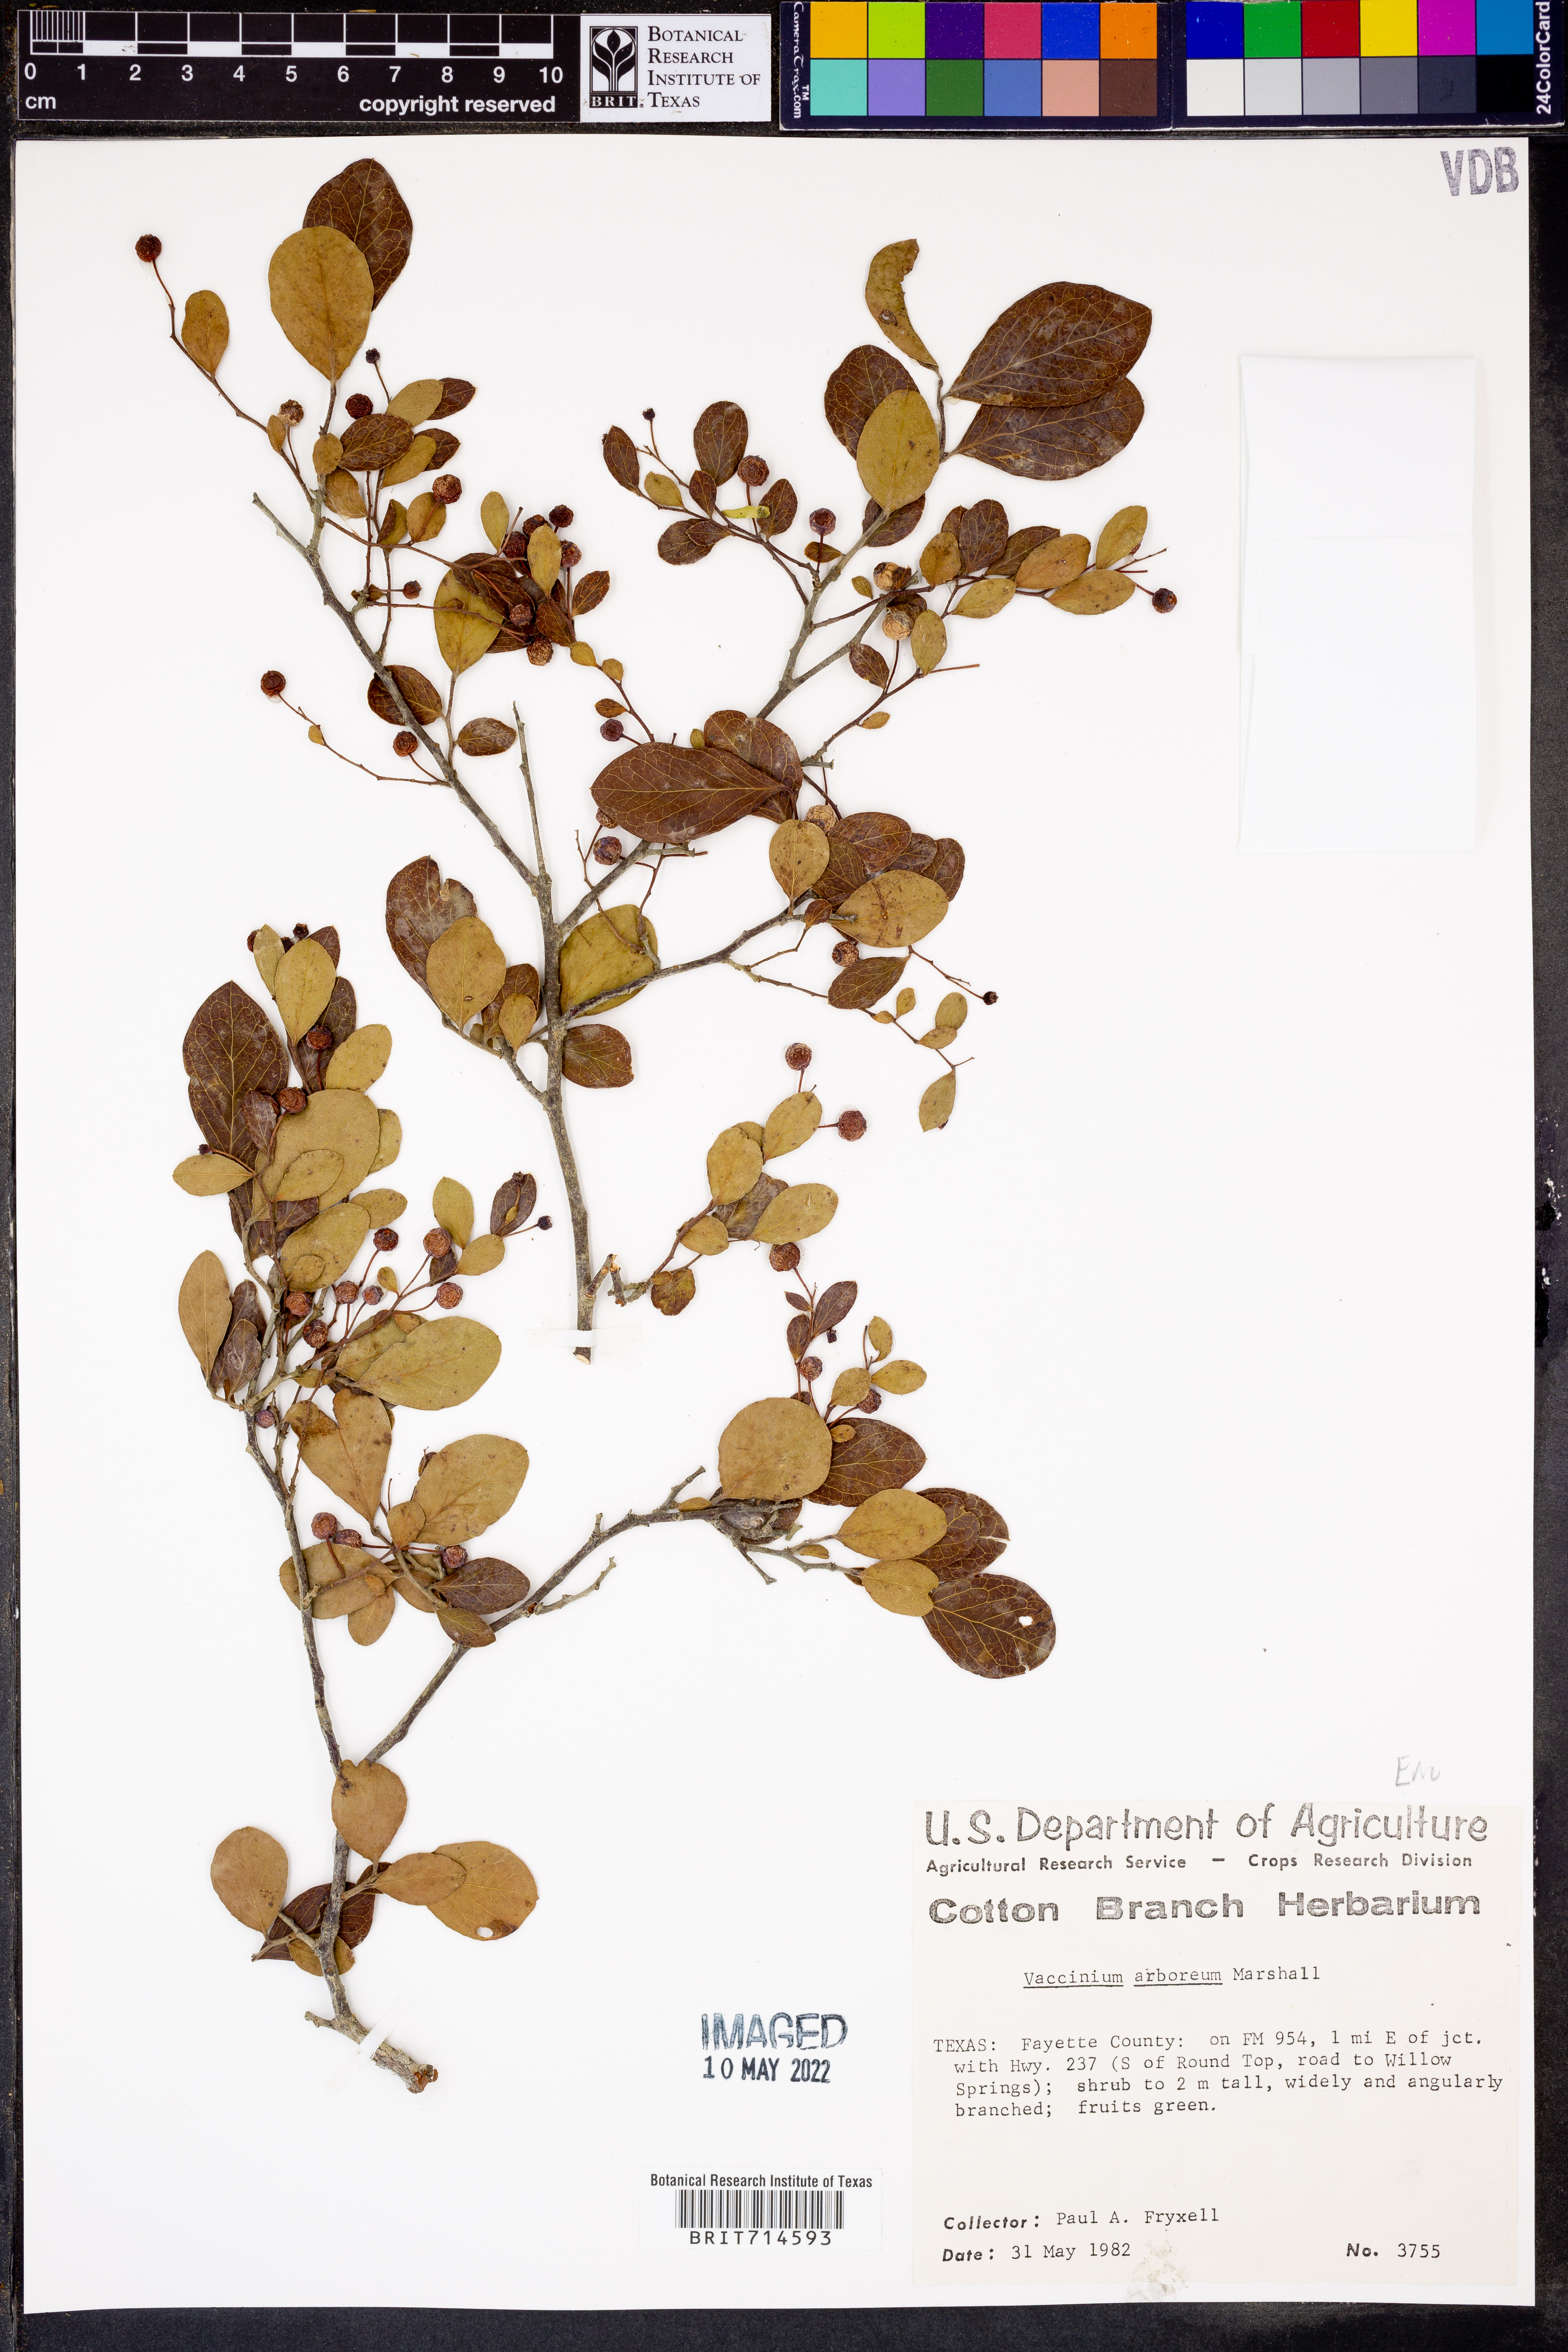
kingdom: Plantae
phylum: Tracheophyta
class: Magnoliopsida
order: Ericales
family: Ericaceae
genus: Vaccinium
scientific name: Vaccinium arboreum
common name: Farkleberry
